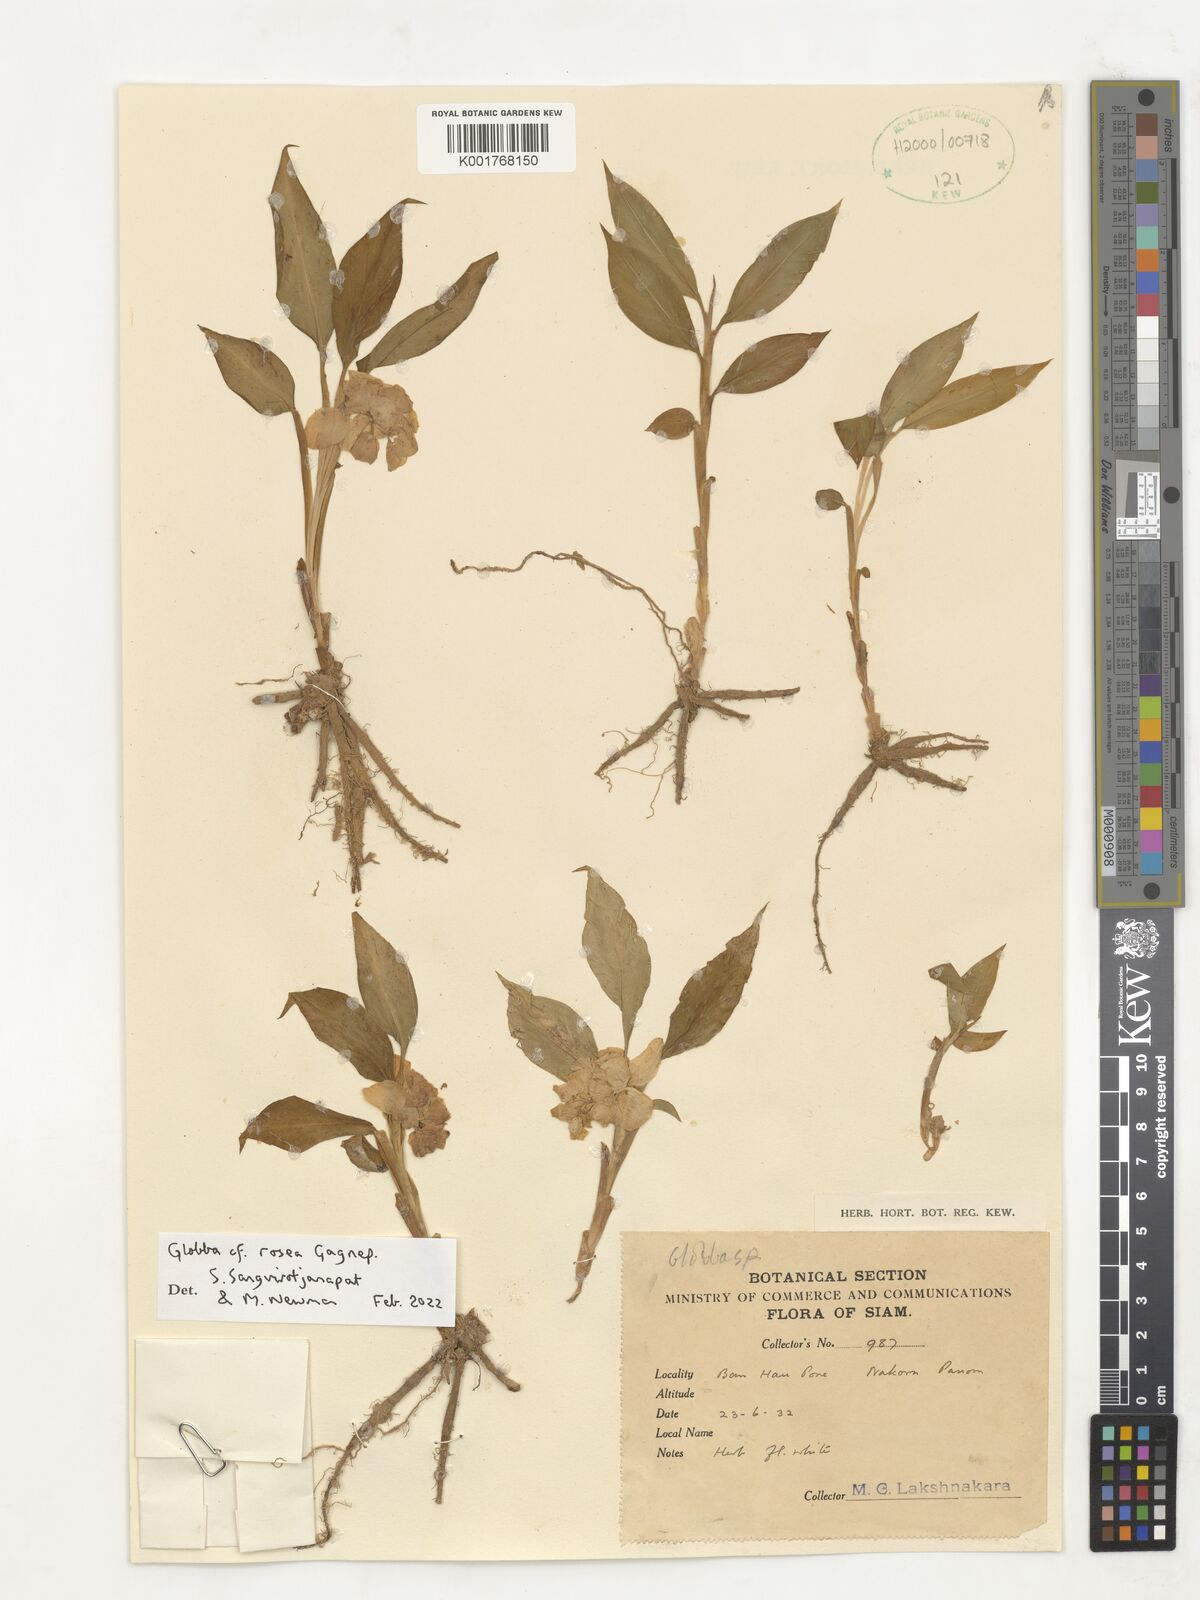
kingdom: Plantae
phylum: Tracheophyta
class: Liliopsida
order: Zingiberales
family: Zingiberaceae
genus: Globba
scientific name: Globba rosea
